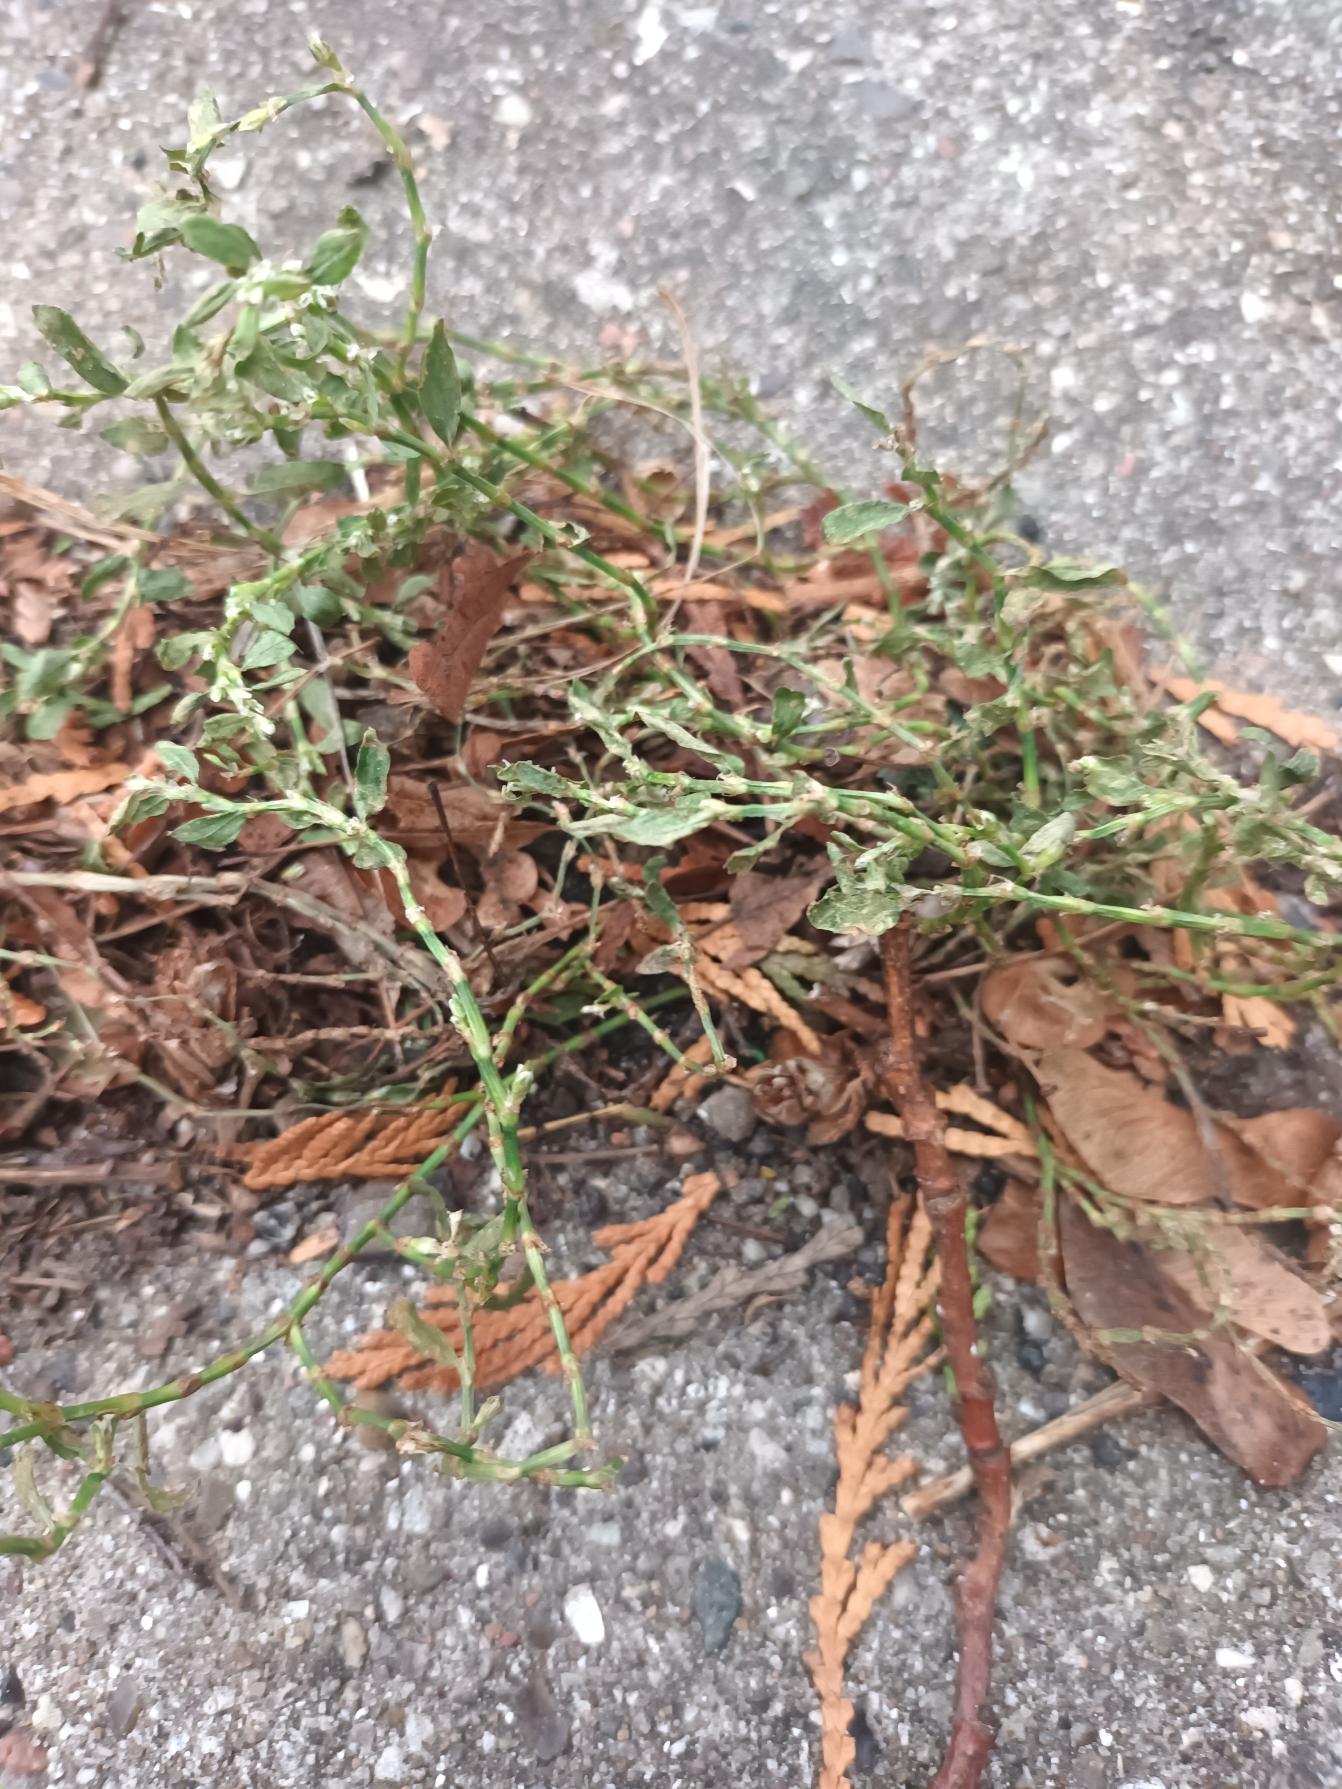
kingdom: Plantae
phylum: Tracheophyta
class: Magnoliopsida
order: Caryophyllales
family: Polygonaceae
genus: Polygonum
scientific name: Polygonum arenastrum
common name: Liggende vej-pileurt
